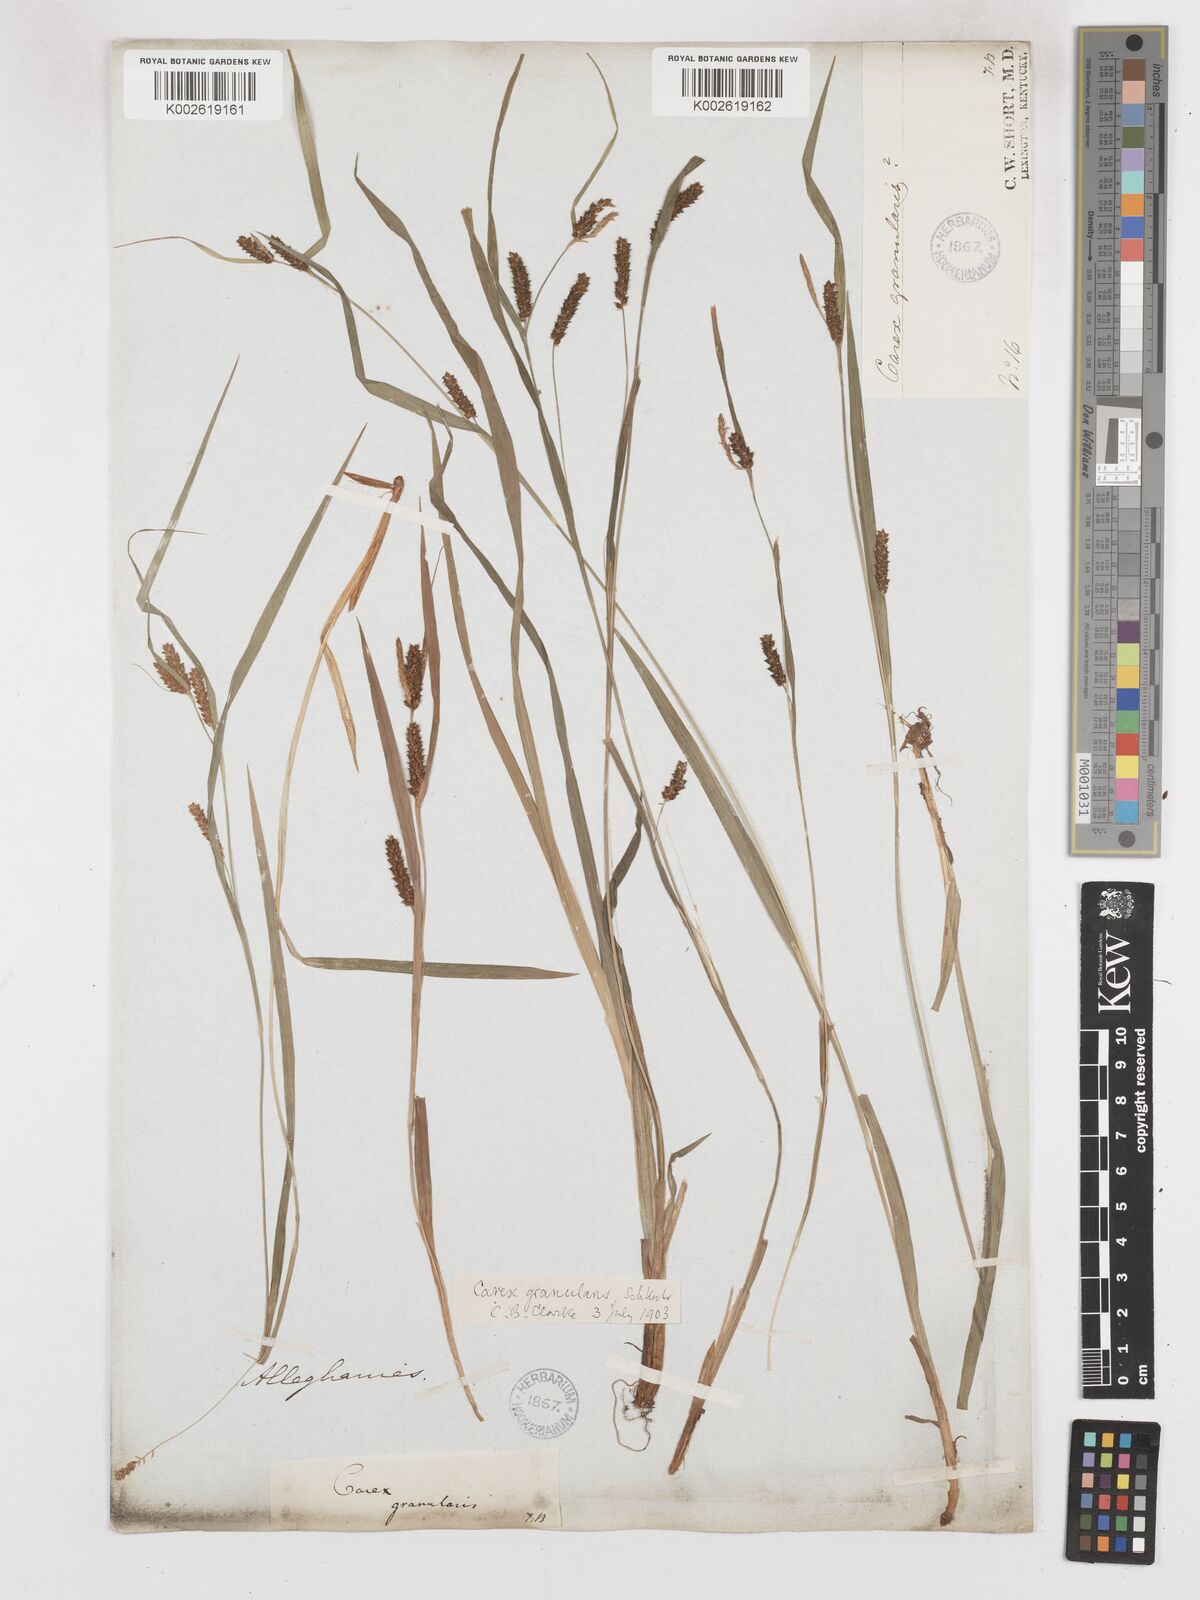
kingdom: Plantae
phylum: Tracheophyta
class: Liliopsida
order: Poales
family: Cyperaceae
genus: Carex
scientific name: Carex granularis
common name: Granular sedge
